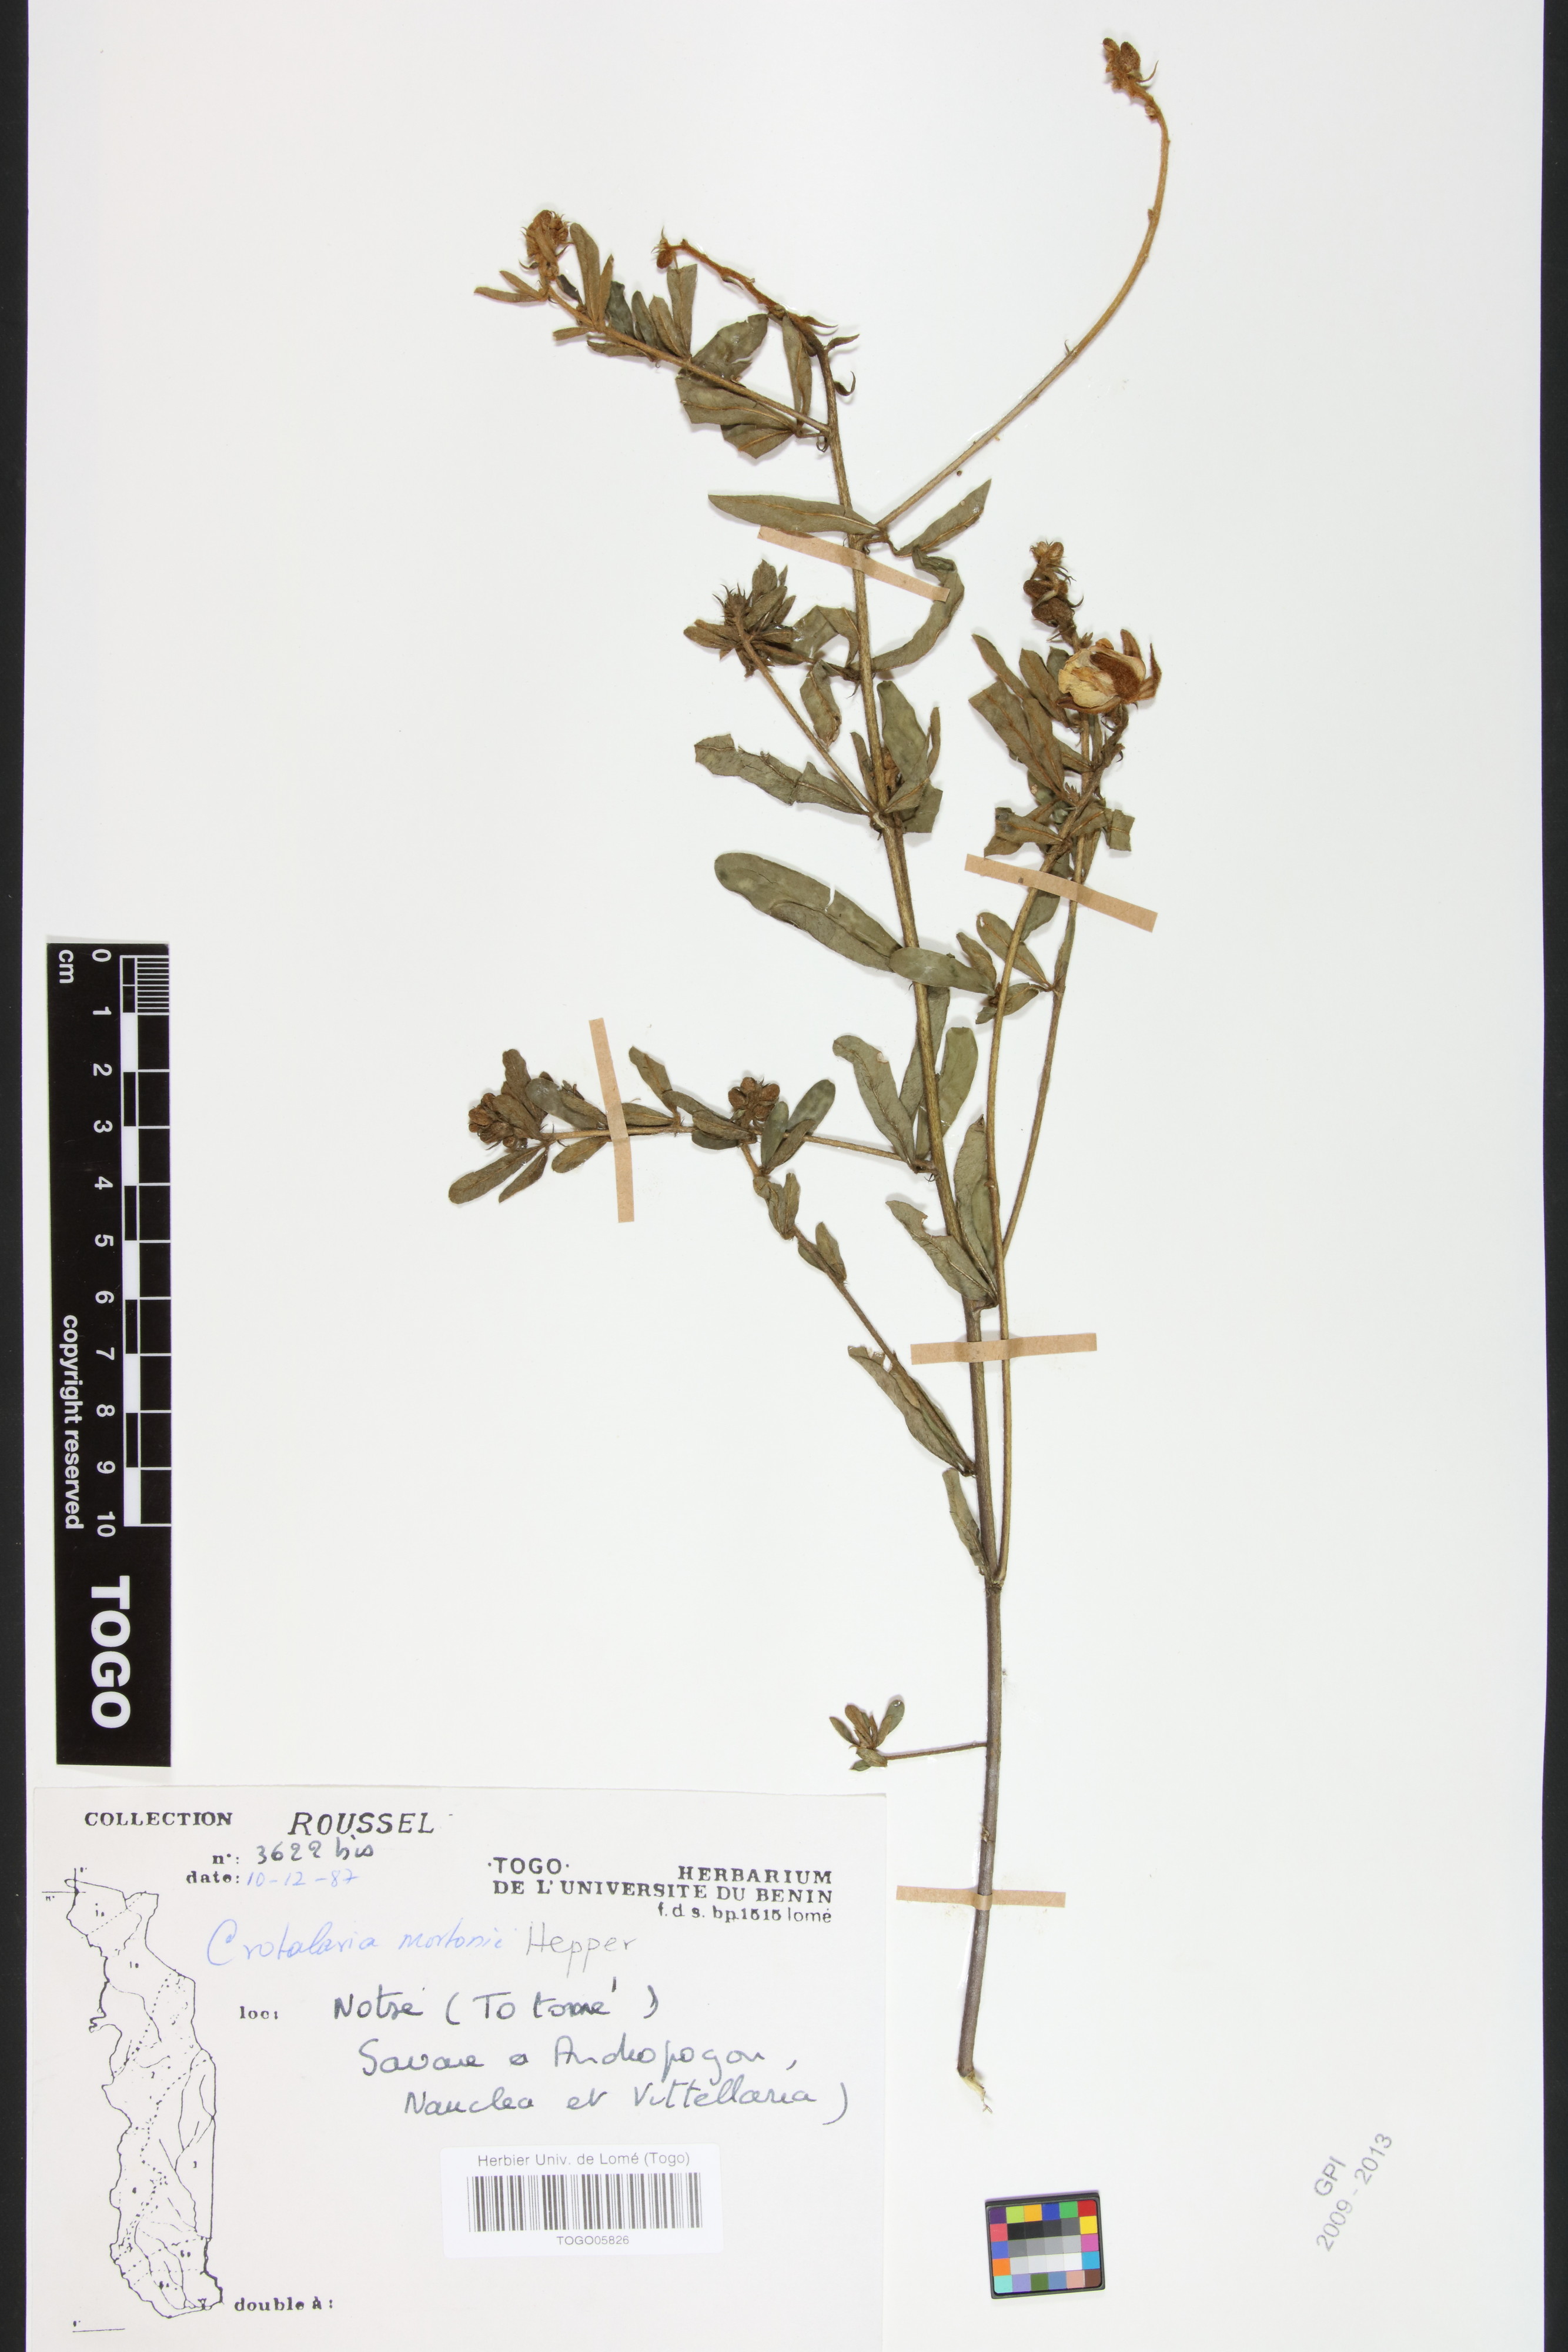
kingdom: Plantae
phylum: Tracheophyta
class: Magnoliopsida
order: Fabales
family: Fabaceae
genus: Crotalaria
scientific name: Crotalaria mortonii
